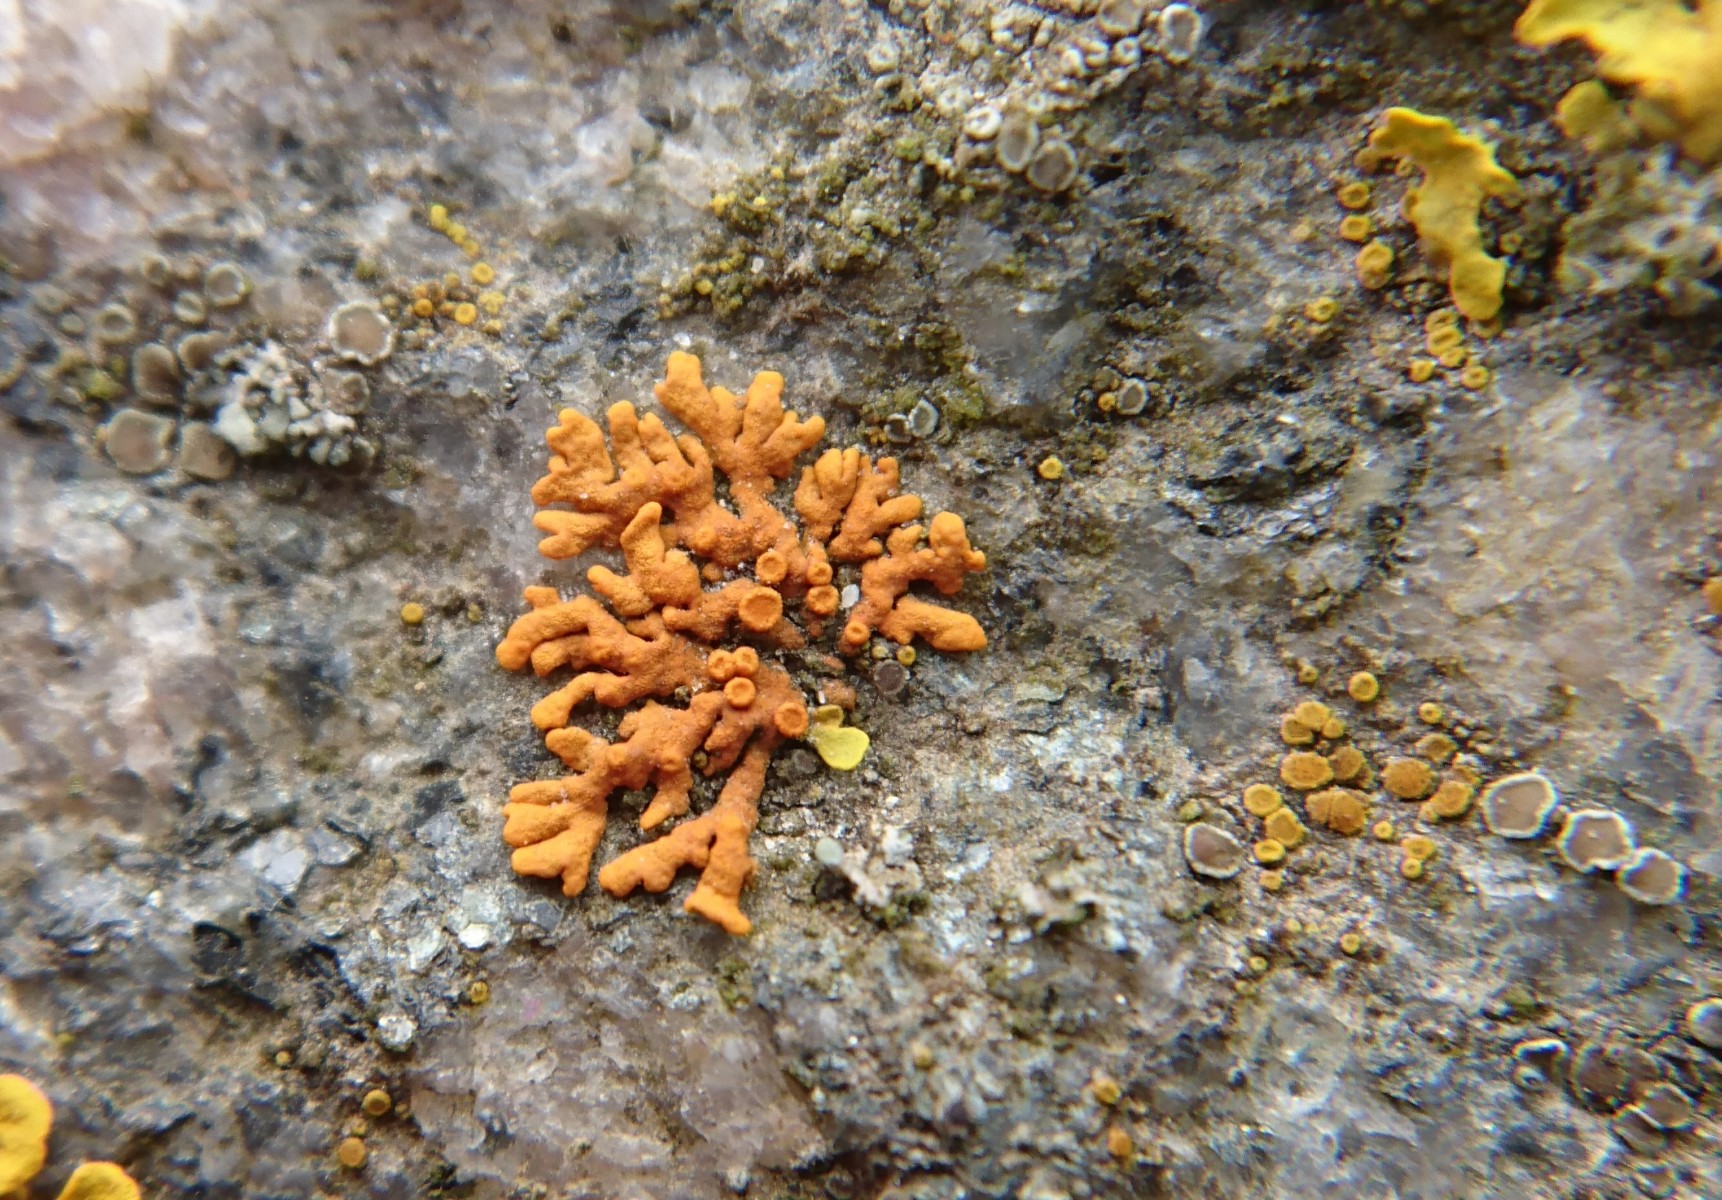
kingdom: Fungi
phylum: Ascomycota
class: Lecanoromycetes
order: Teloschistales
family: Teloschistaceae
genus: Xanthoria
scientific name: Xanthoria elegans
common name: fjeld-væggelav
